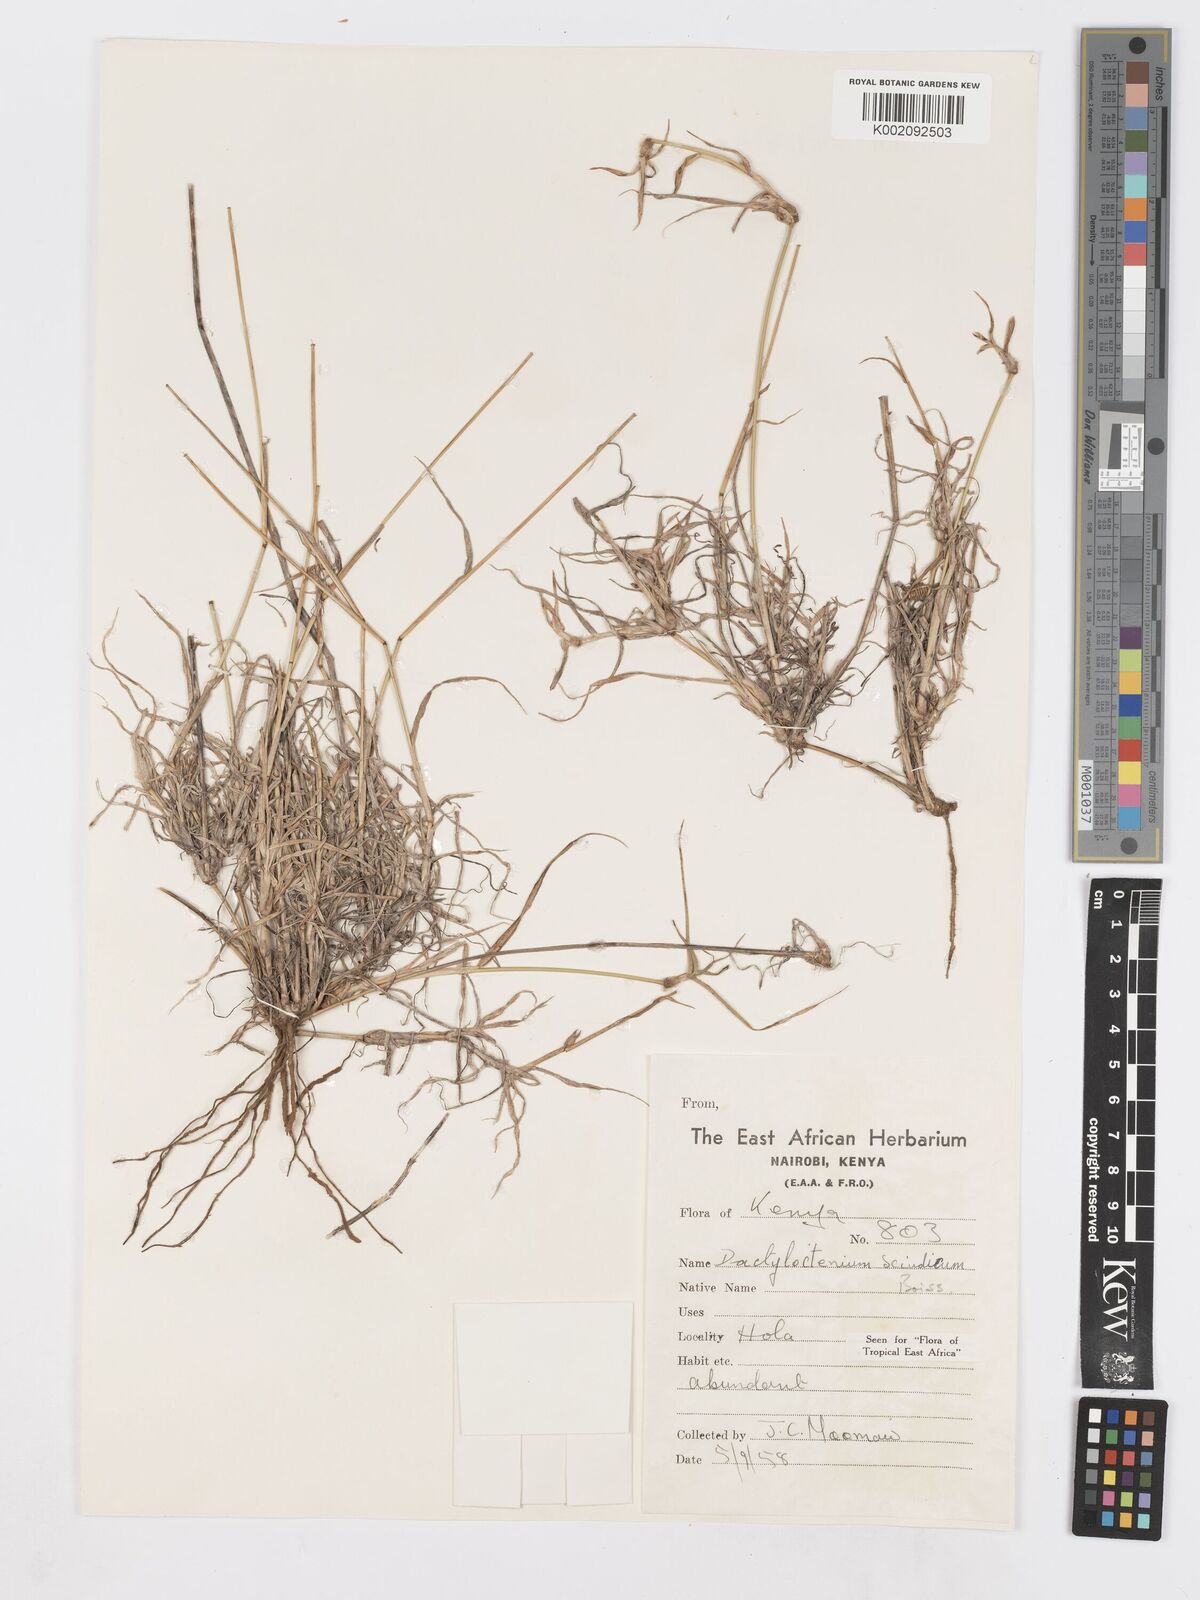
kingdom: Plantae
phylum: Tracheophyta
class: Liliopsida
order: Poales
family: Poaceae
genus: Dactyloctenium
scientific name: Dactyloctenium scindicum
